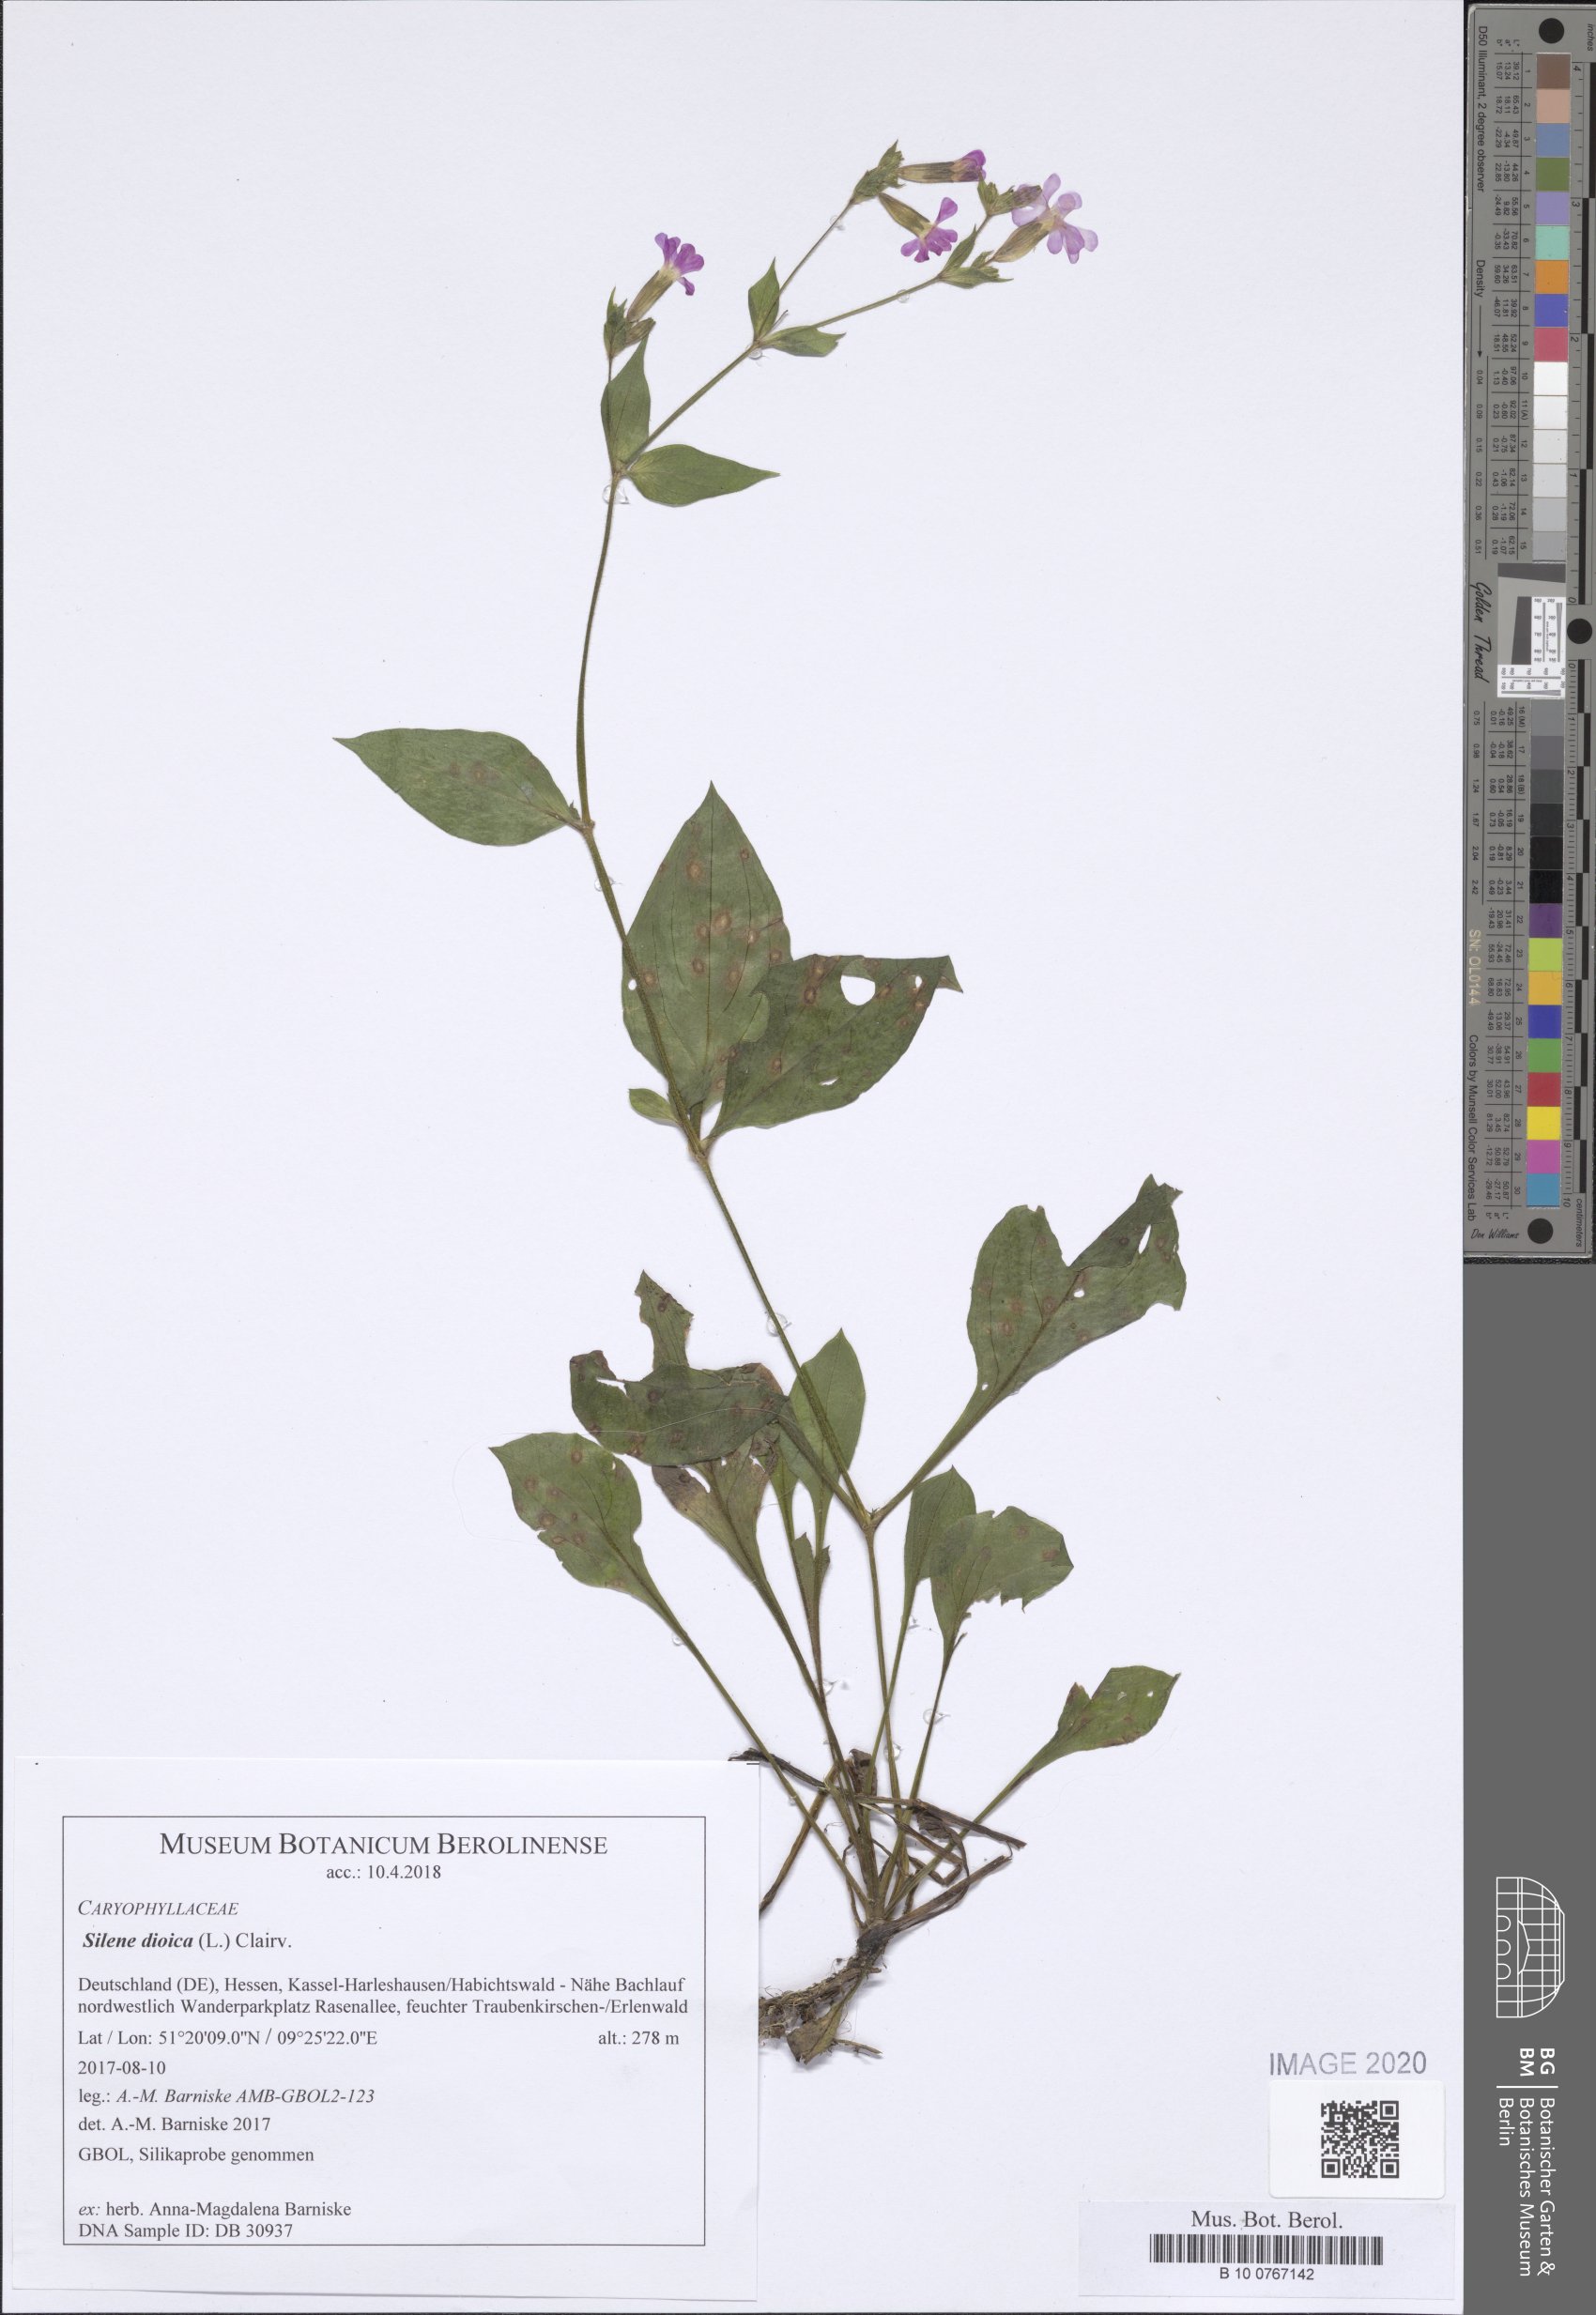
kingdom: Plantae
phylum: Tracheophyta
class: Magnoliopsida
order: Caryophyllales
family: Caryophyllaceae
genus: Silene
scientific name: Silene dioica
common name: Red campion
